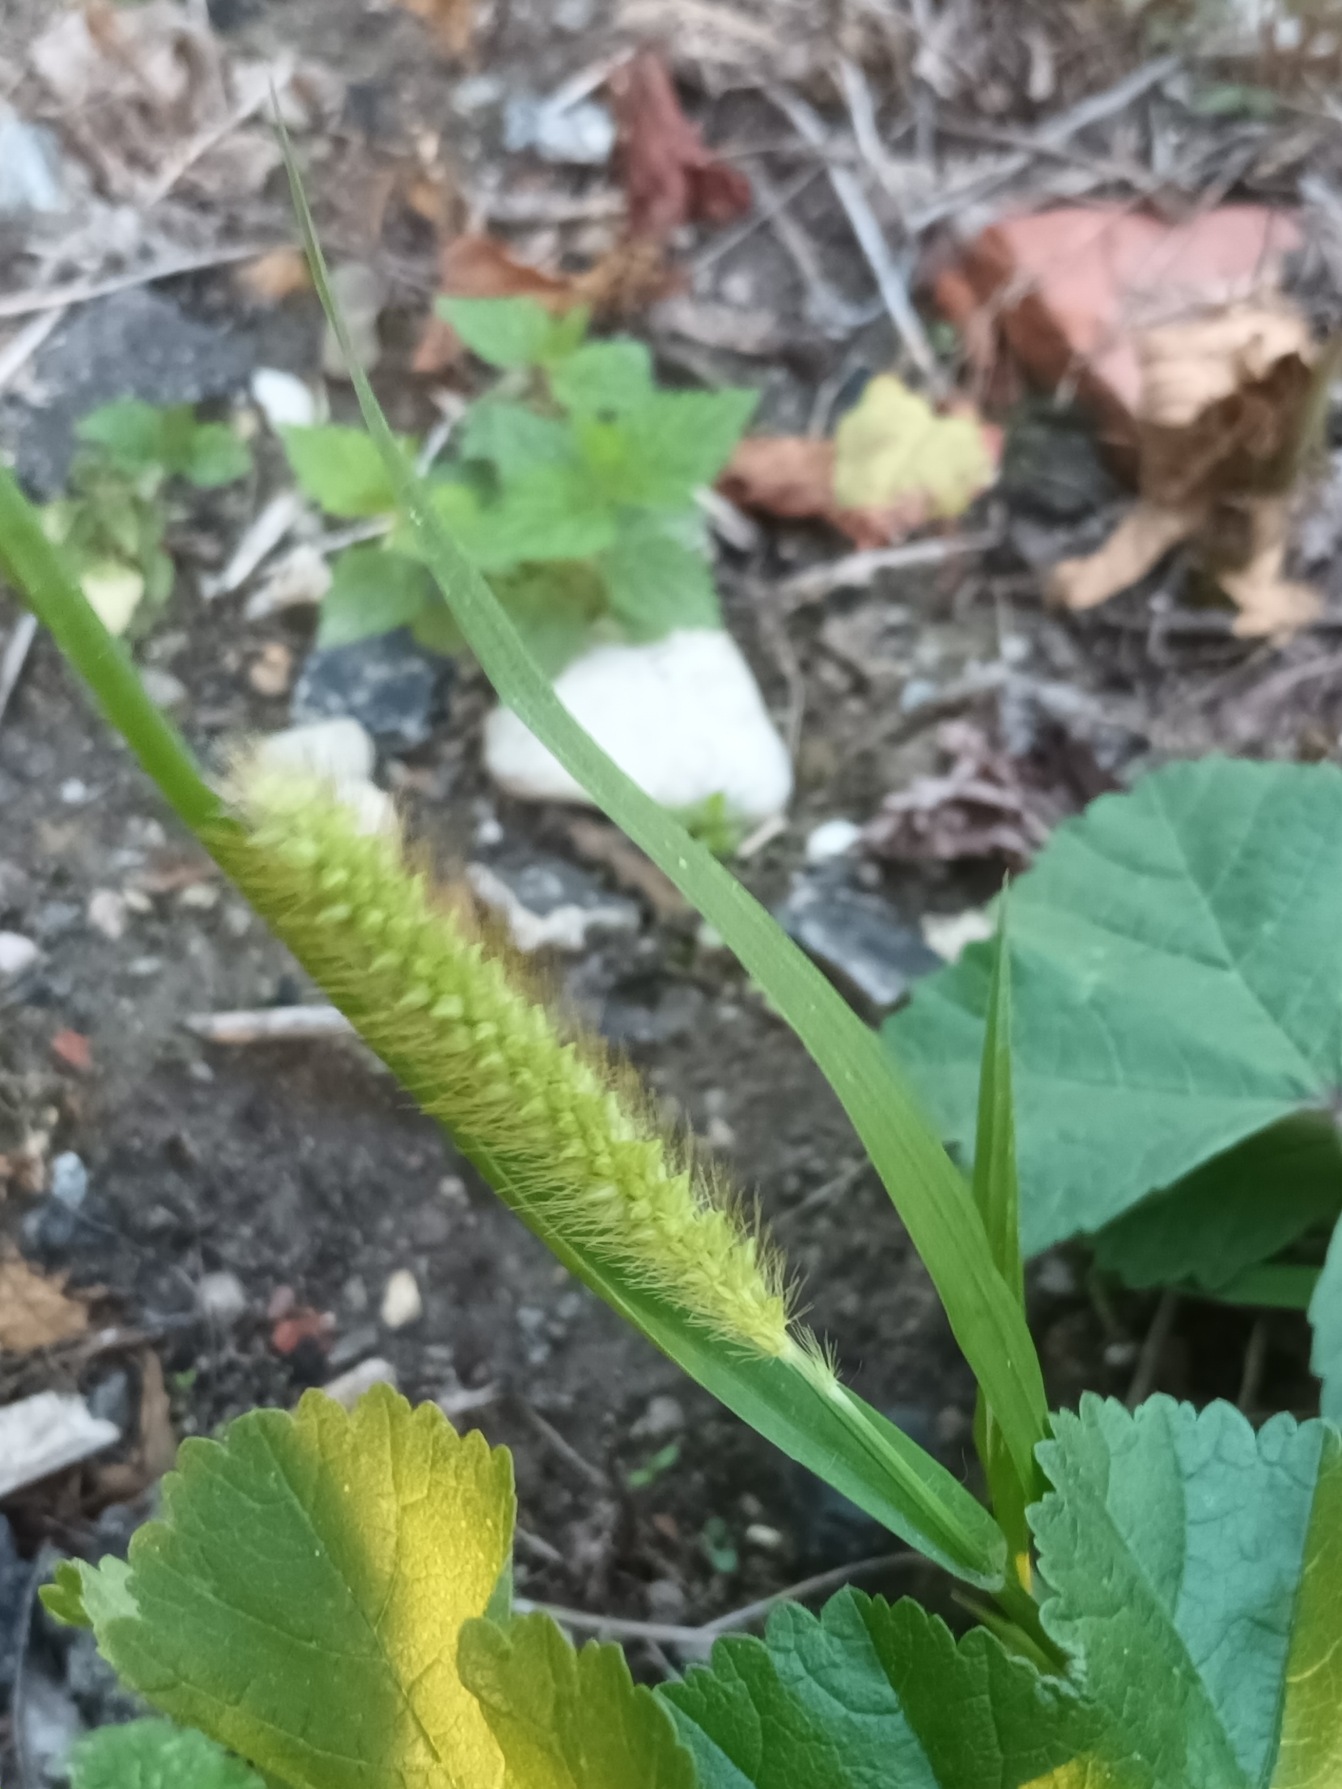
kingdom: Plantae
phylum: Tracheophyta
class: Liliopsida
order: Poales
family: Poaceae
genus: Setaria
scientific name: Setaria pumila
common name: Blågrøn skærmaks
